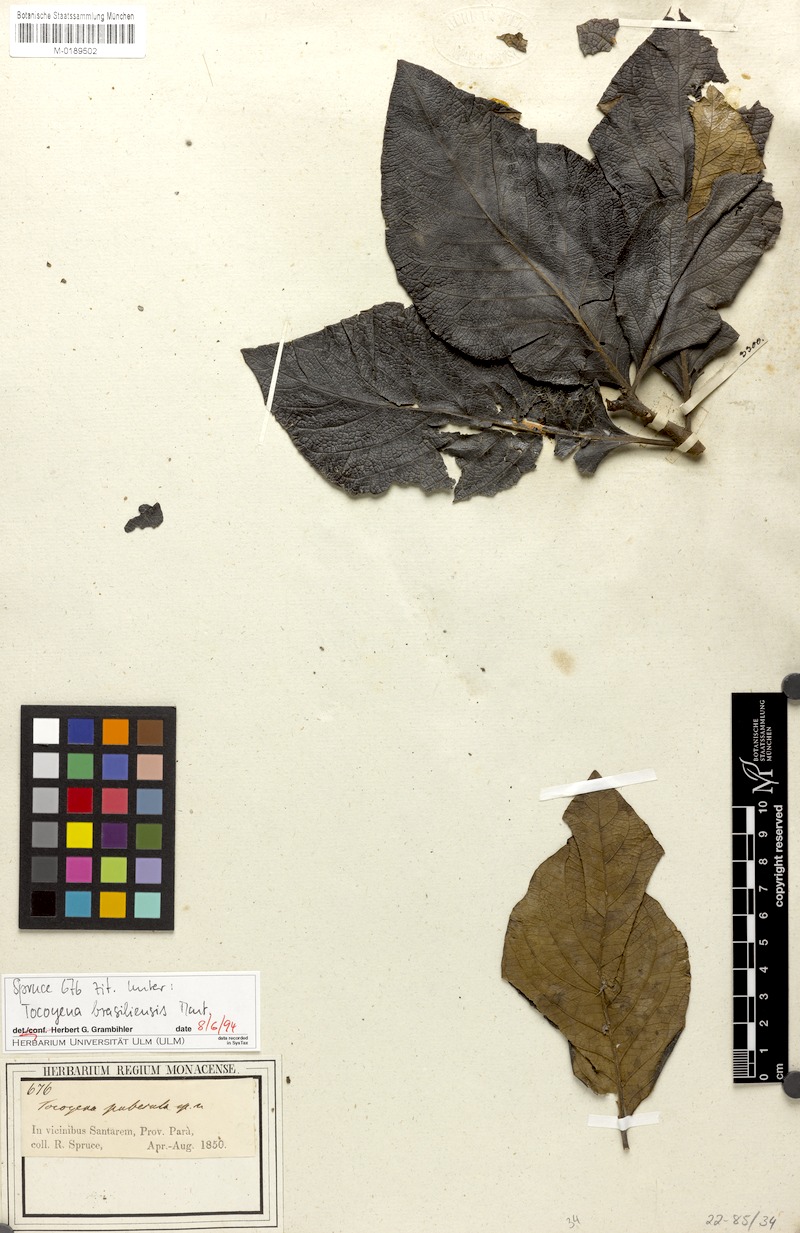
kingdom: Plantae
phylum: Tracheophyta
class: Magnoliopsida
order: Gentianales
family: Rubiaceae
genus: Tocoyena
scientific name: Tocoyena sprucei
